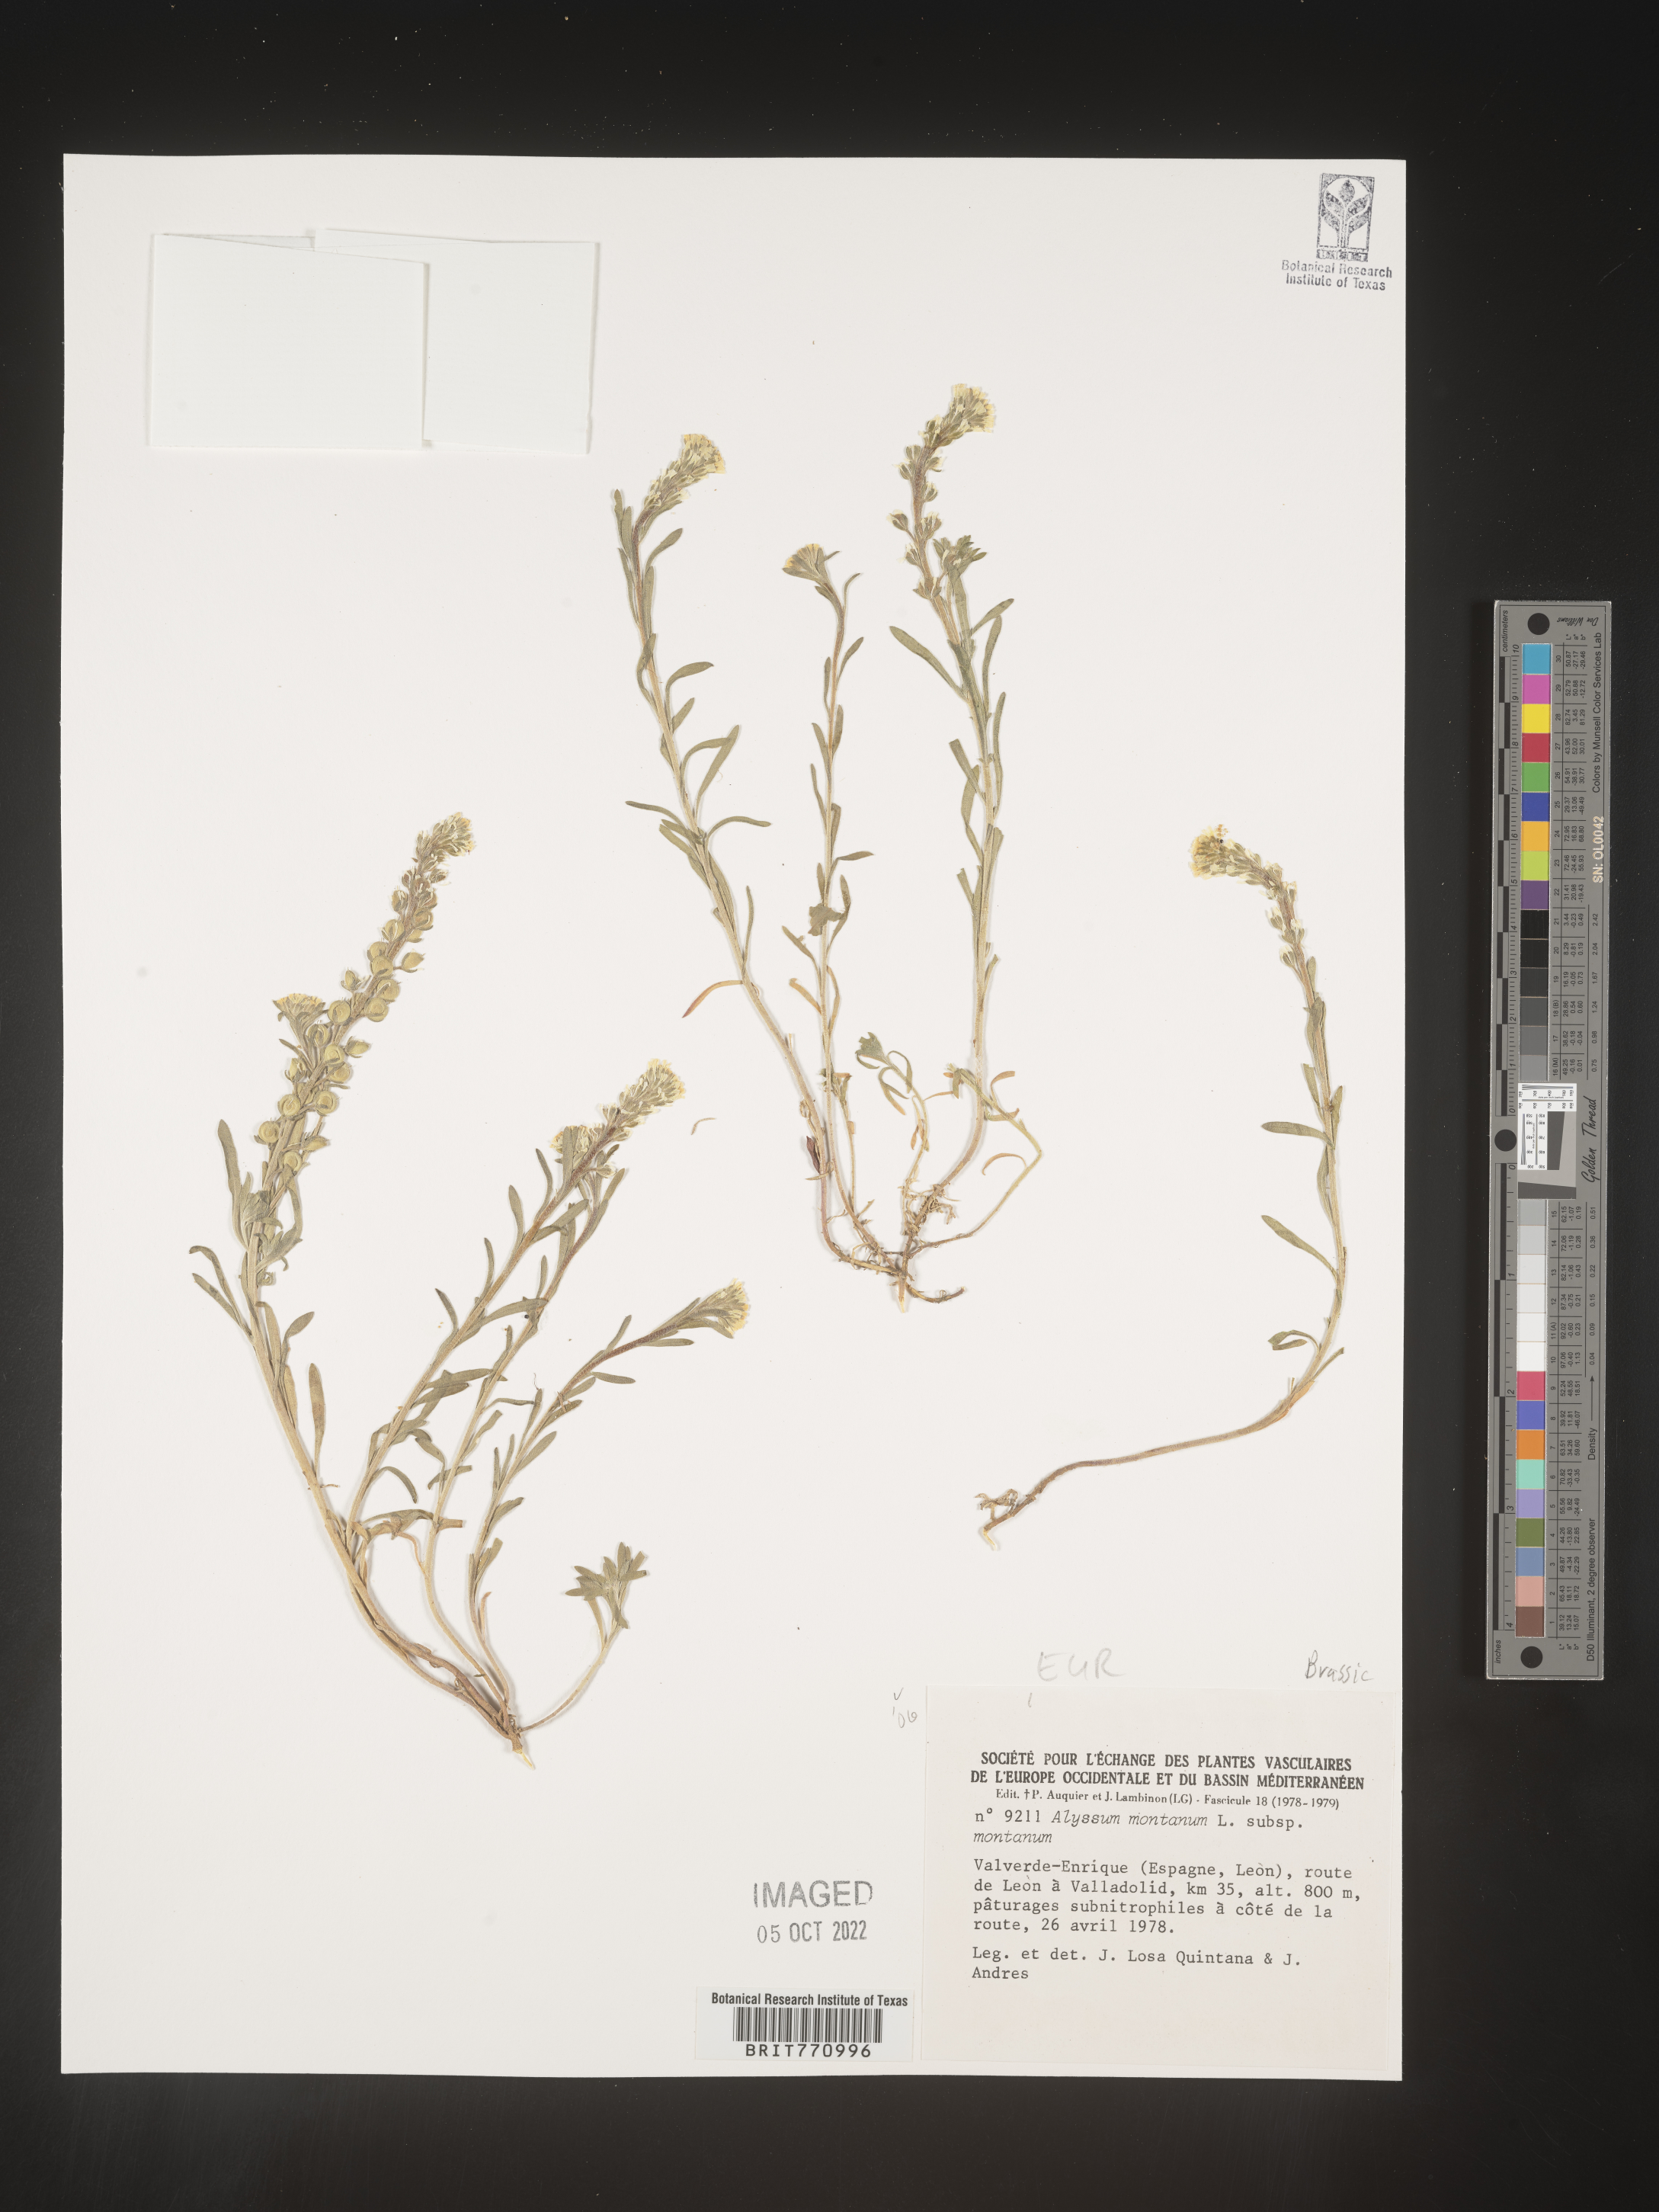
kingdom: Plantae
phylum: Tracheophyta
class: Magnoliopsida
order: Brassicales
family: Brassicaceae
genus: Alyssum
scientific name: Alyssum
